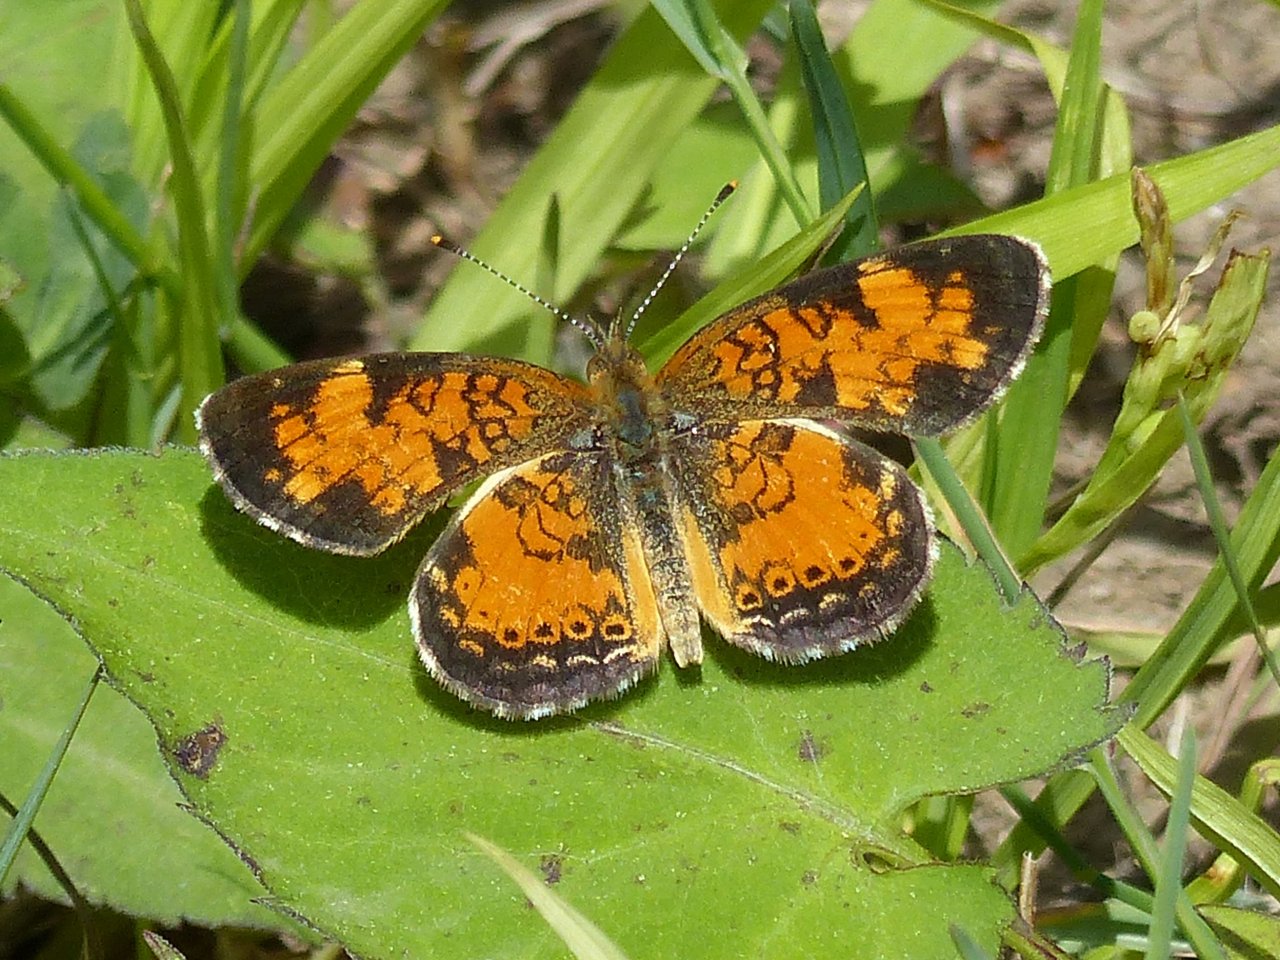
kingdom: Animalia
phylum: Arthropoda
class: Insecta
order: Lepidoptera
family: Nymphalidae
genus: Phyciodes
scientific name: Phyciodes tharos
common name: Northern Crescent
